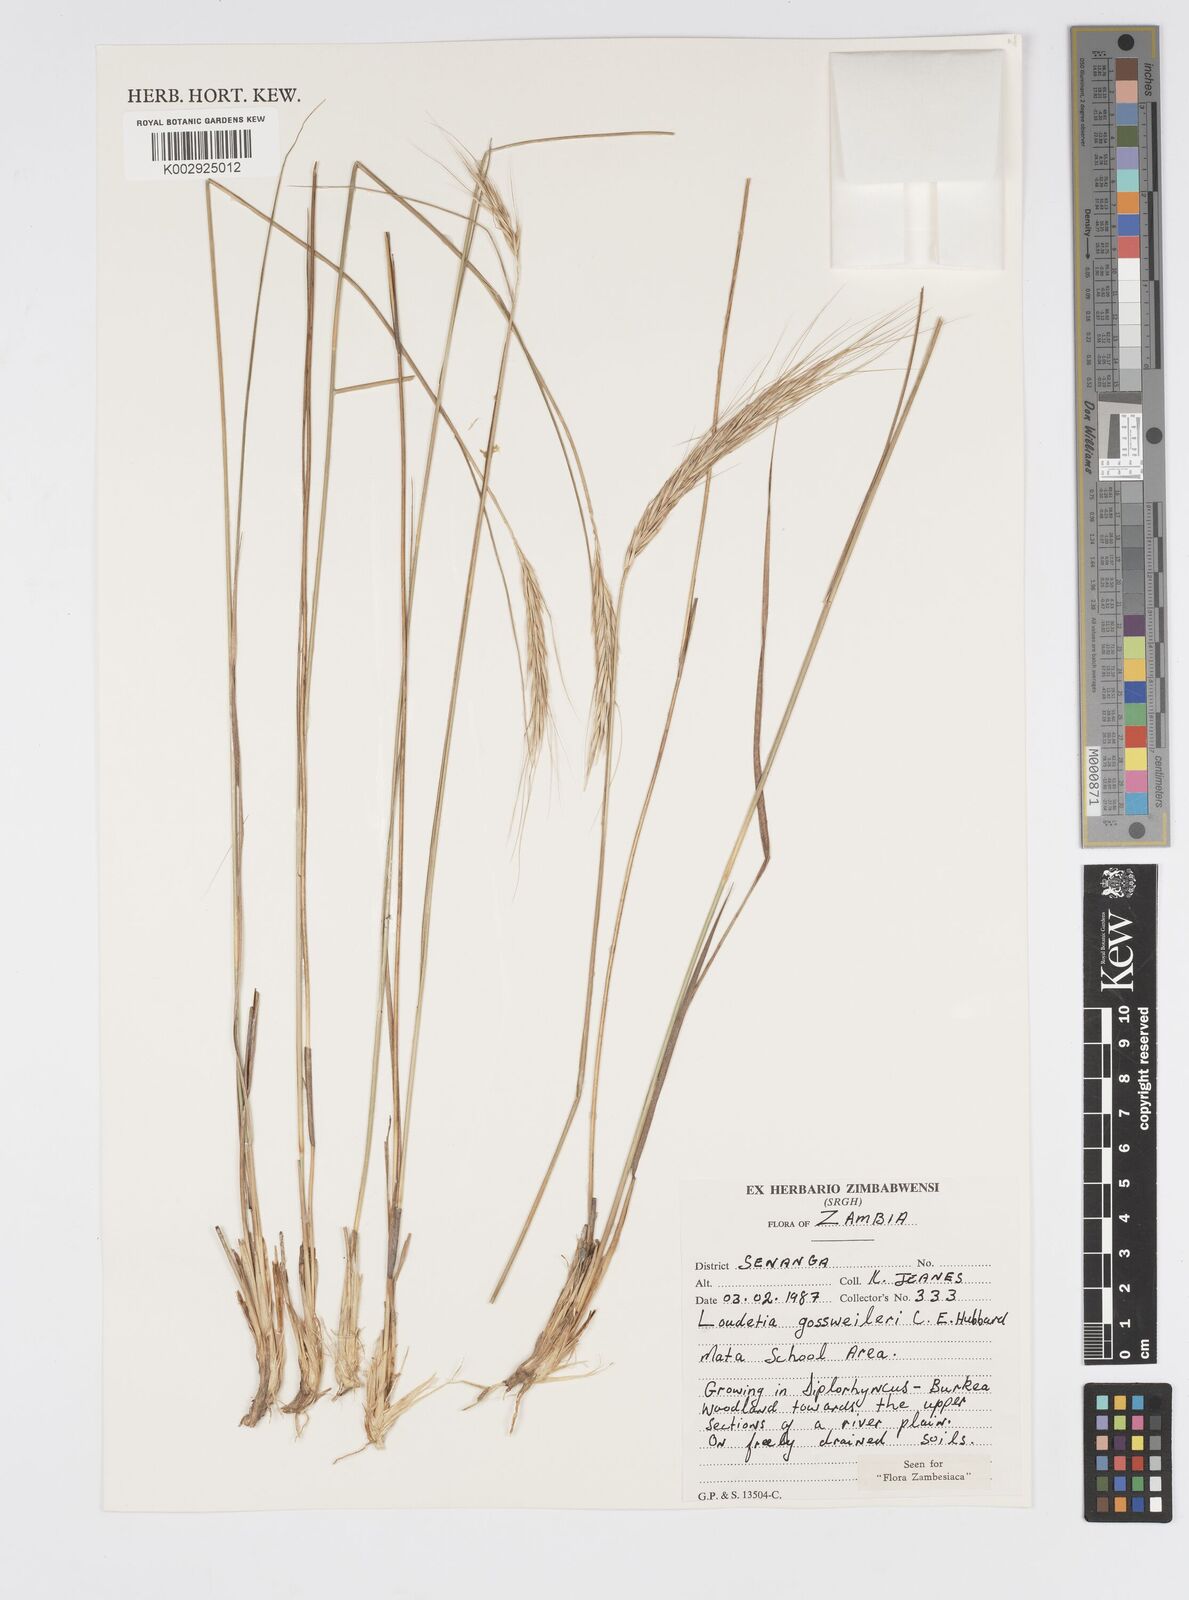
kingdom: Plantae
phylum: Tracheophyta
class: Liliopsida
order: Poales
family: Poaceae
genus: Loudetia
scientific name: Loudetia
